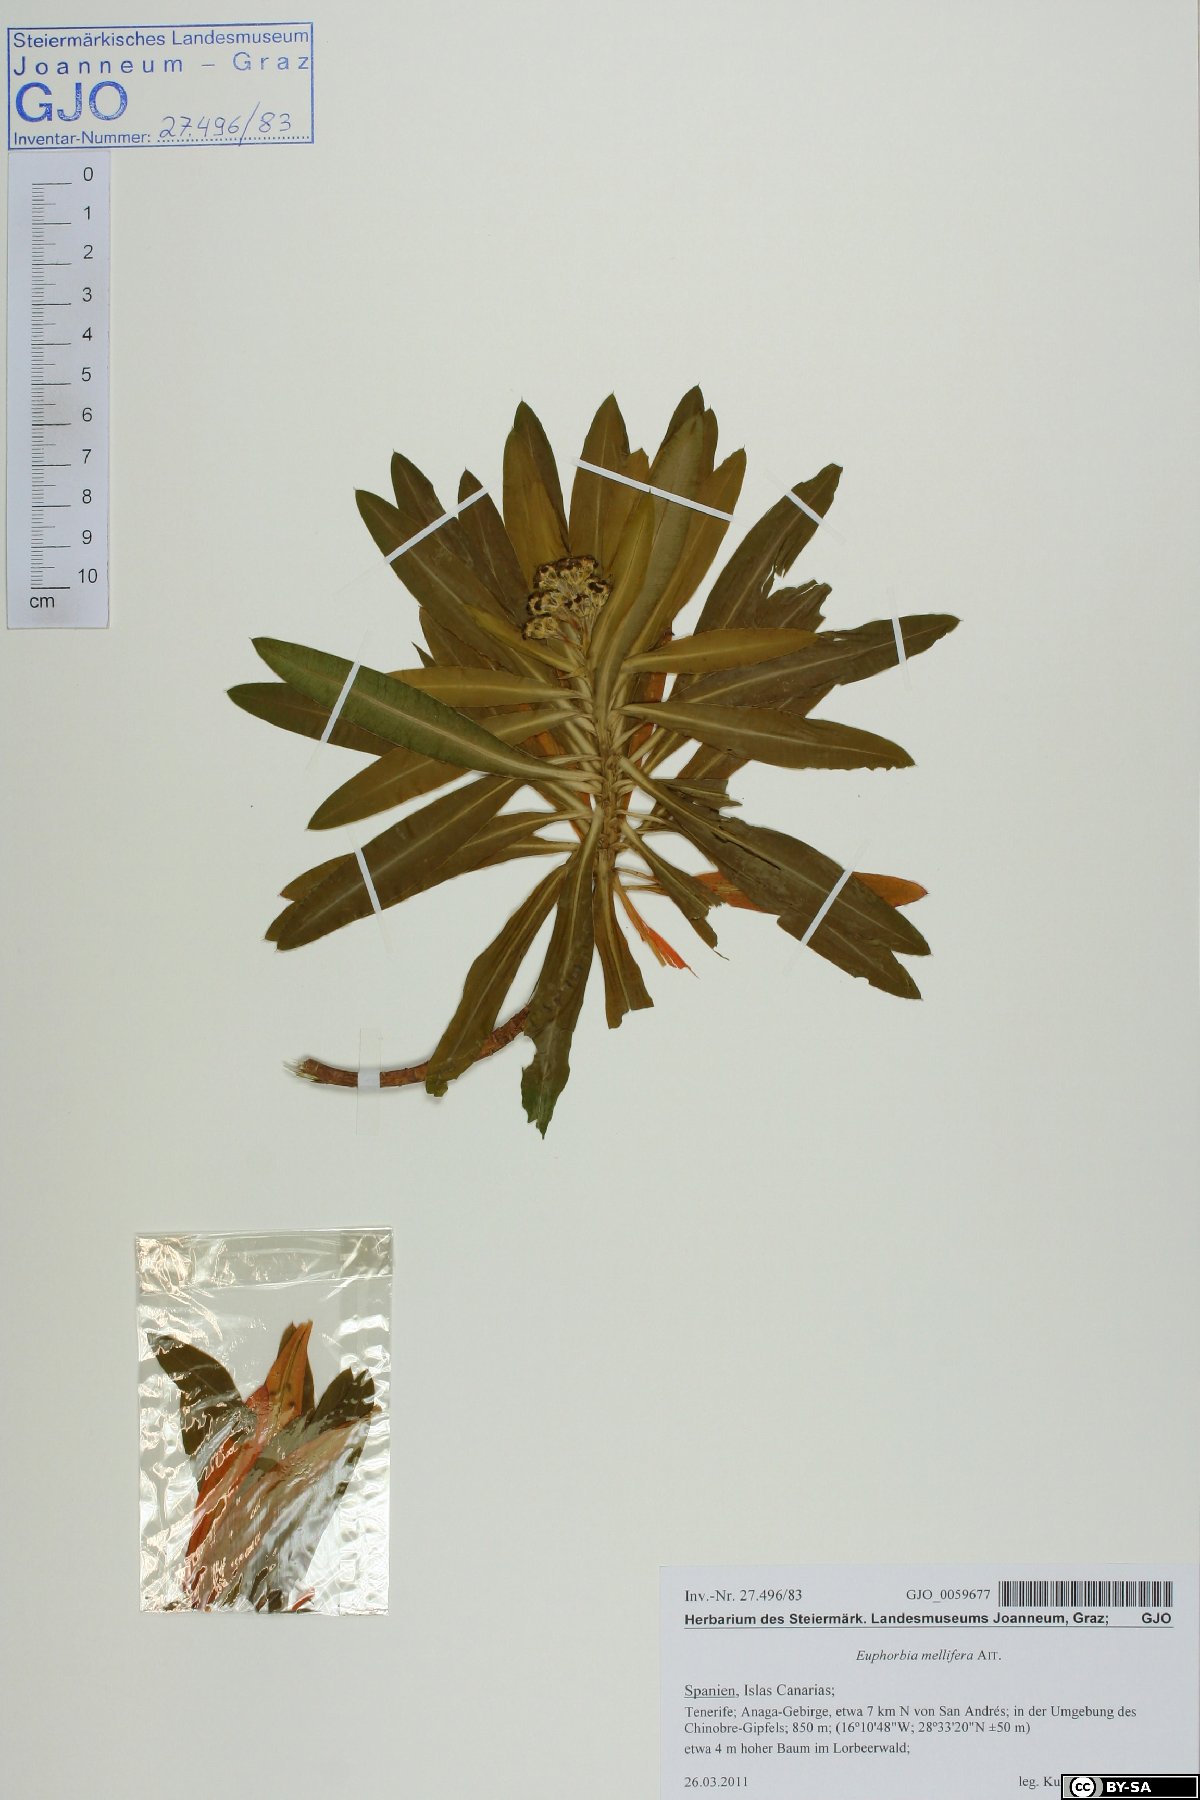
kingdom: Plantae
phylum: Tracheophyta
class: Magnoliopsida
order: Malpighiales
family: Euphorbiaceae
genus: Euphorbia
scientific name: Euphorbia mellifera
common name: Canary spurge
